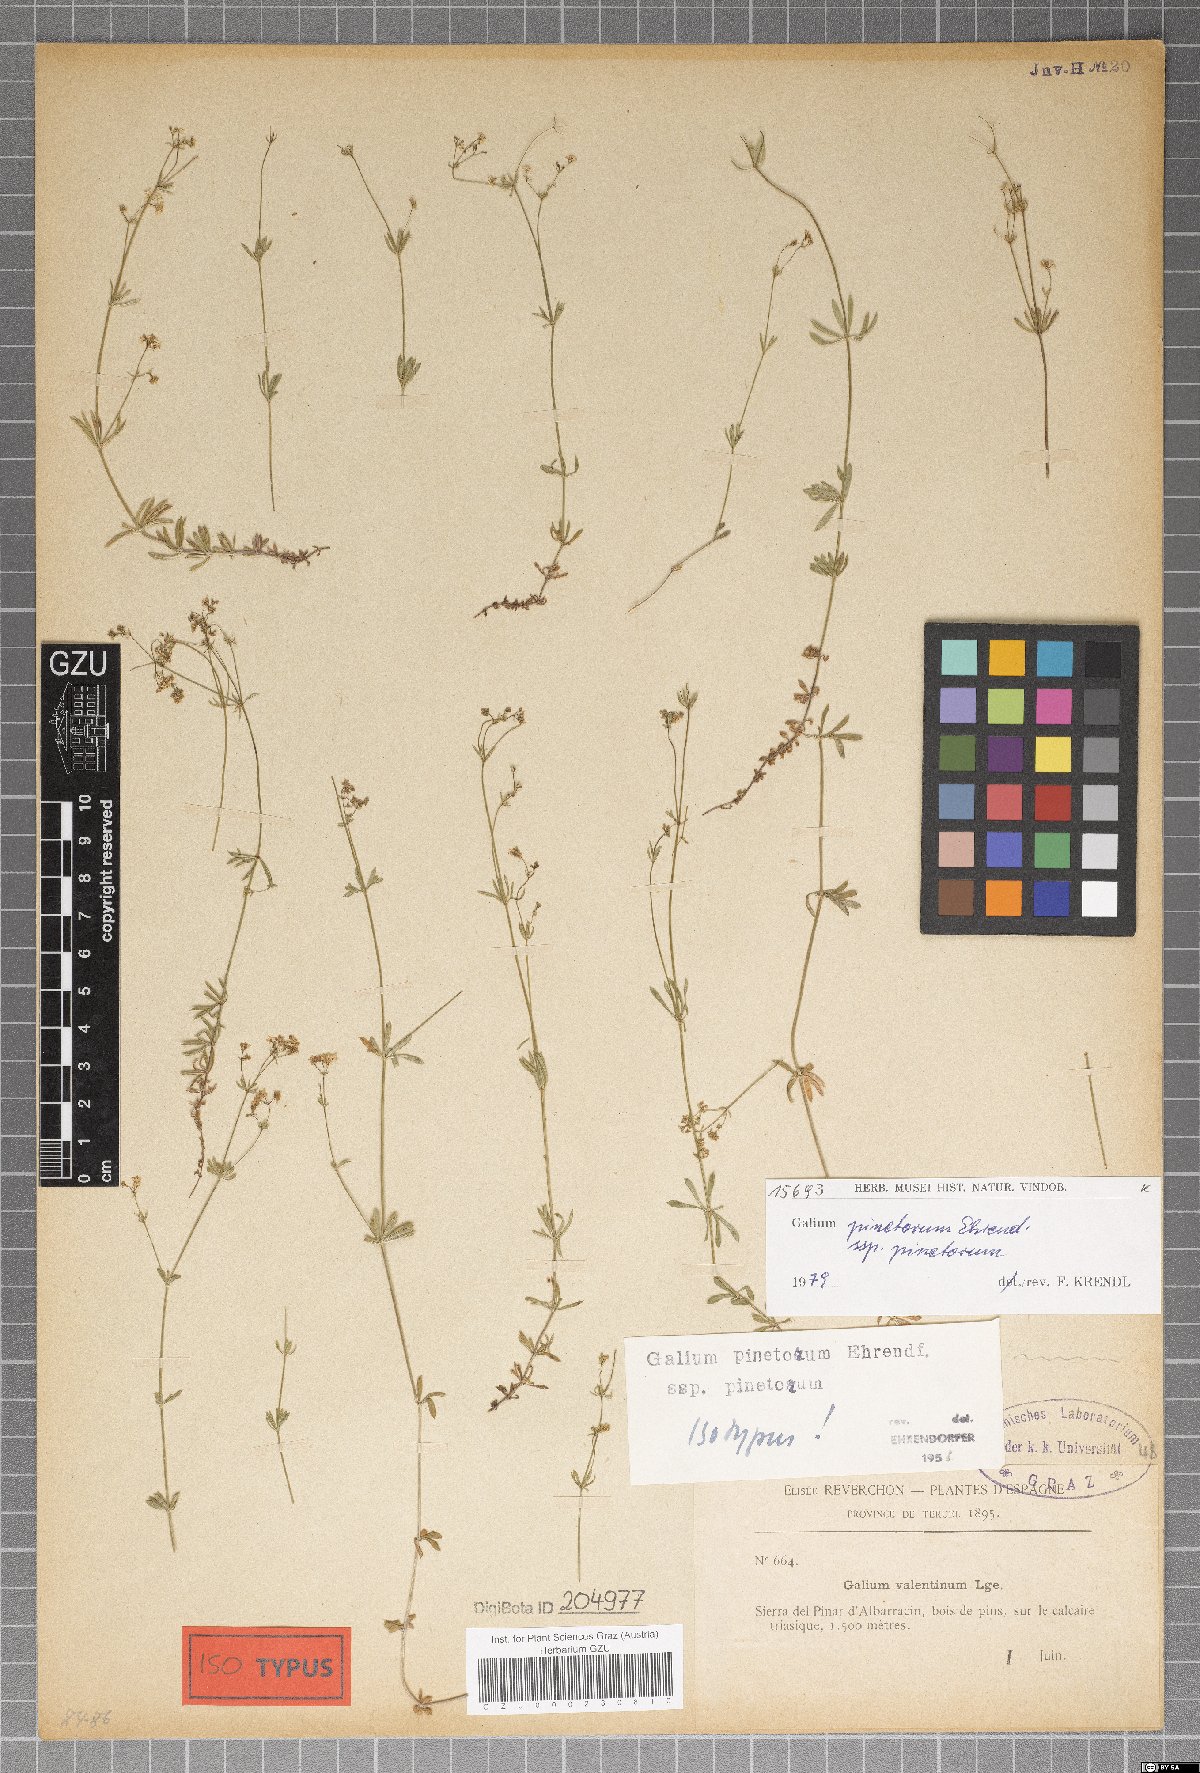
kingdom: Plantae
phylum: Tracheophyta
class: Magnoliopsida
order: Gentianales
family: Rubiaceae
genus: Galium
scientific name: Galium estebanii
